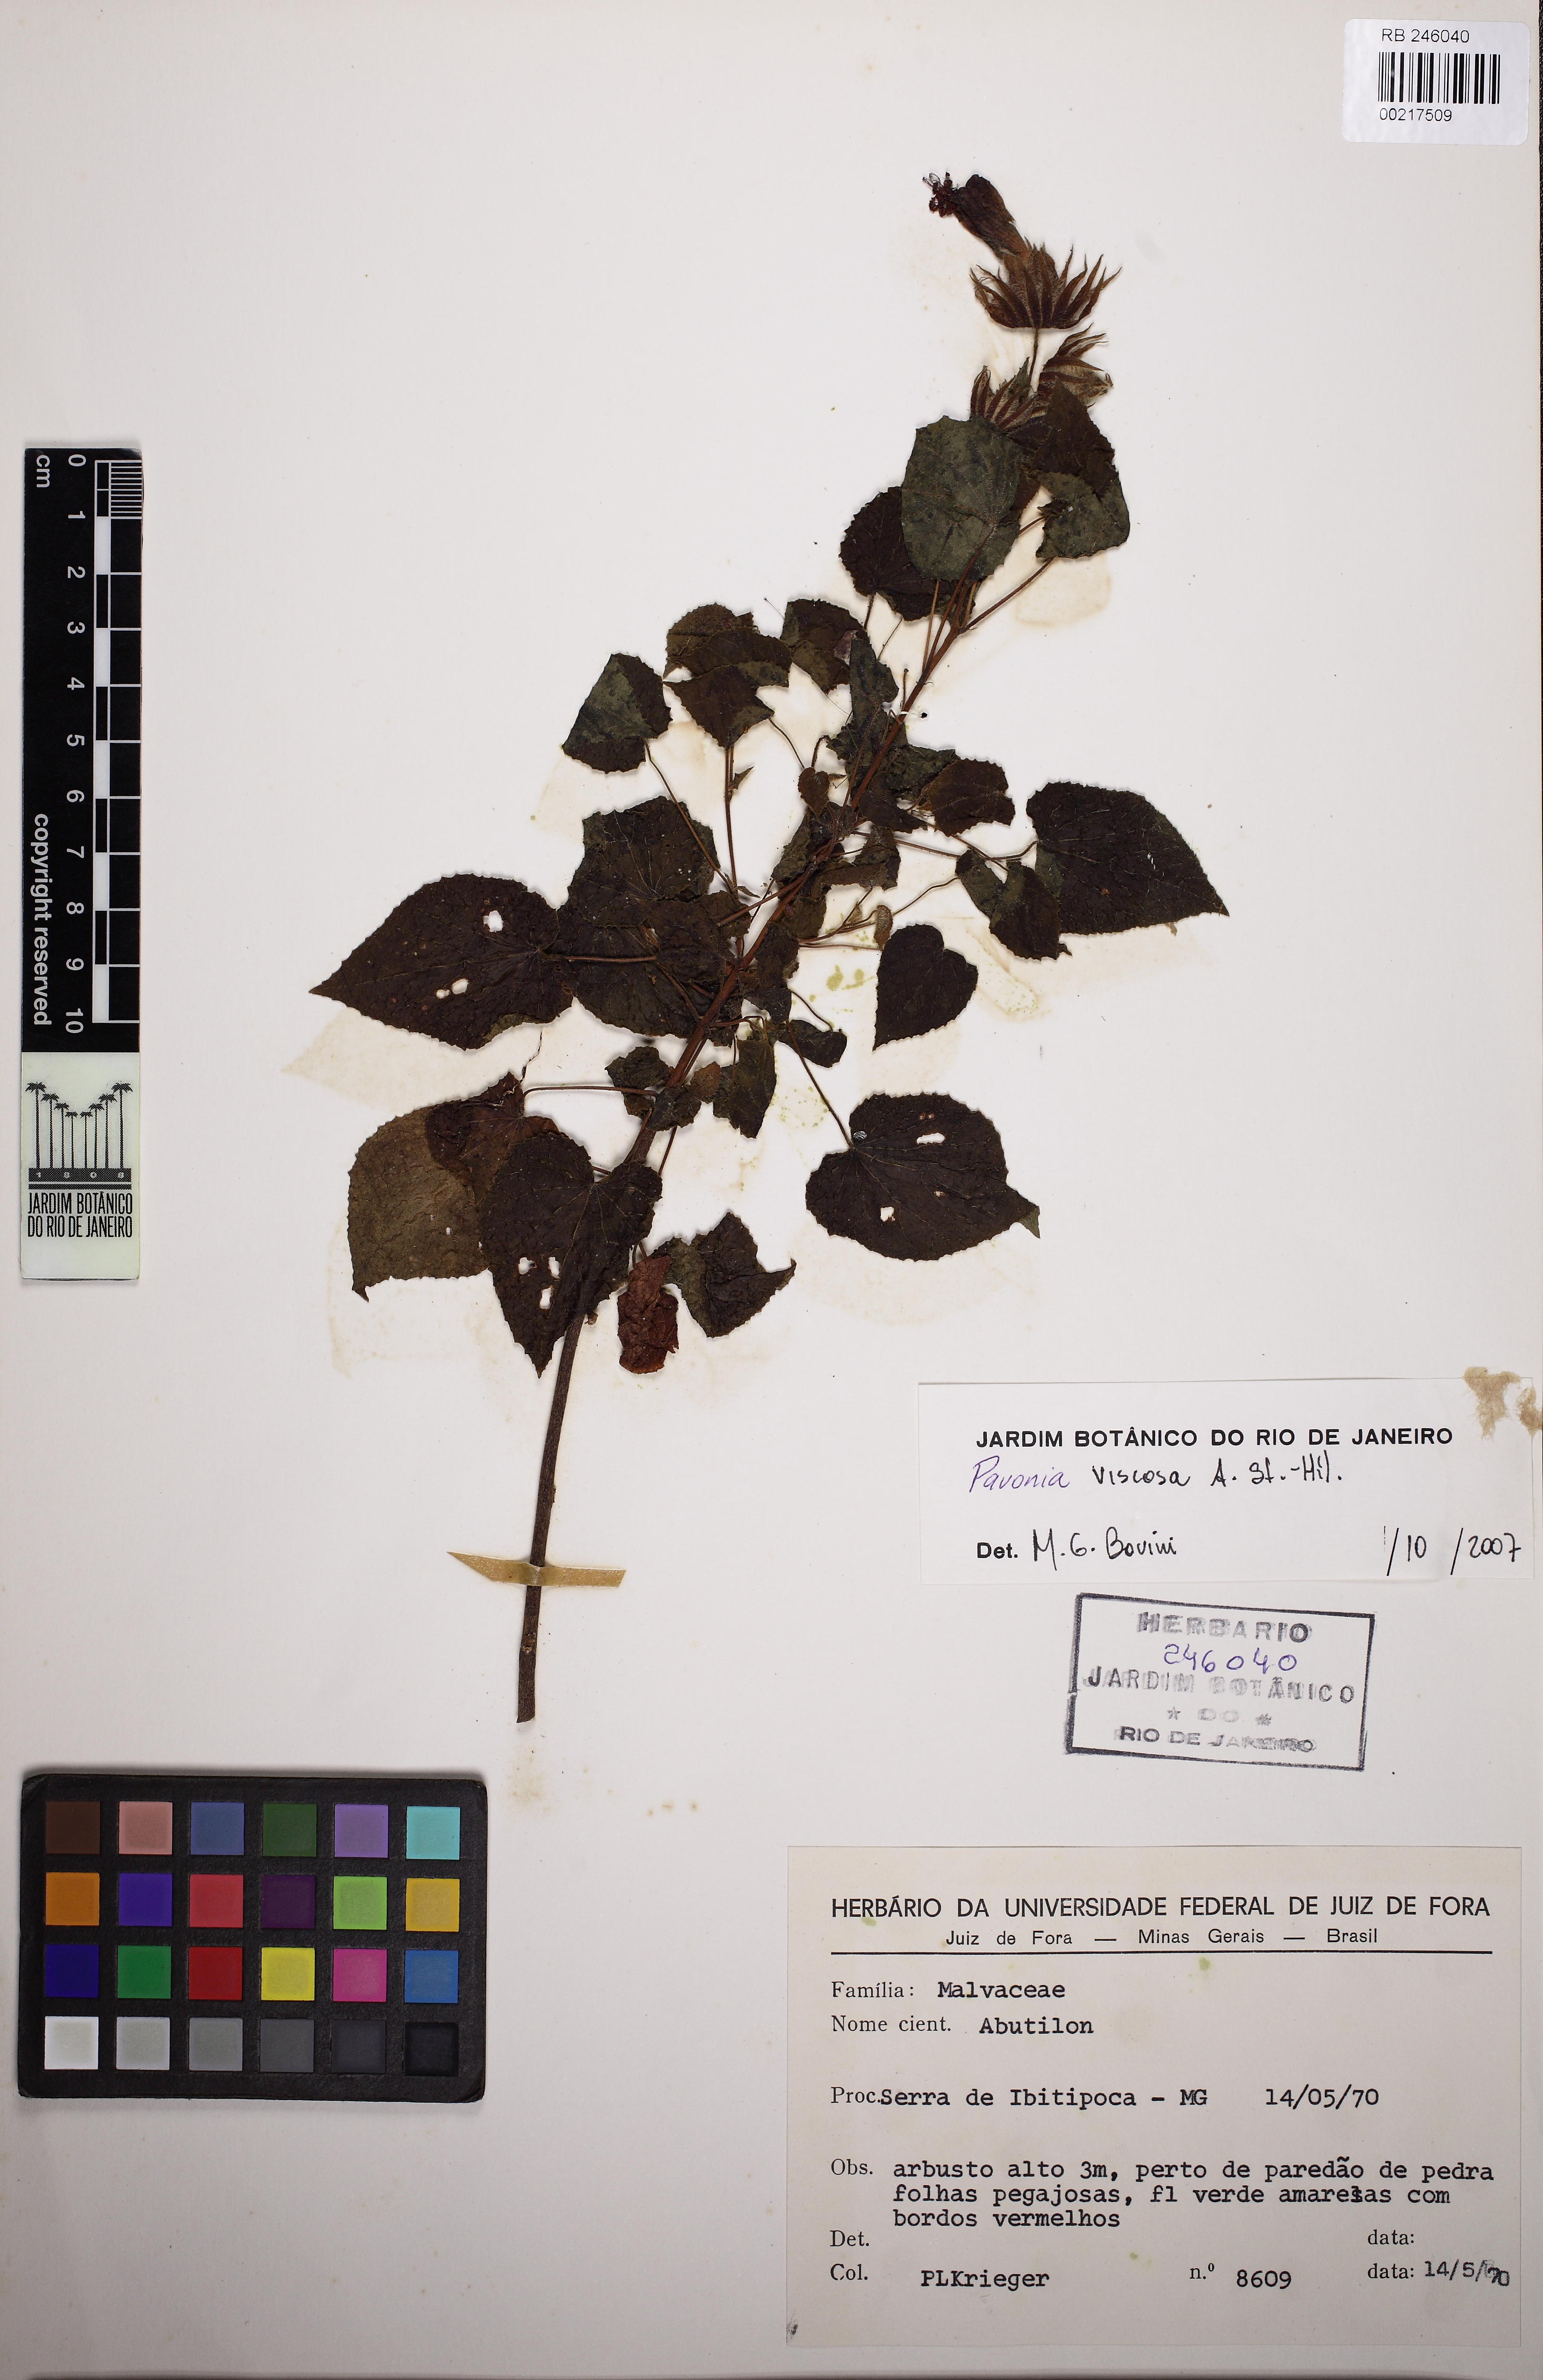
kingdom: Plantae
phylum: Tracheophyta
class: Magnoliopsida
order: Malvales
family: Malvaceae
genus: Pavonia
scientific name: Pavonia
